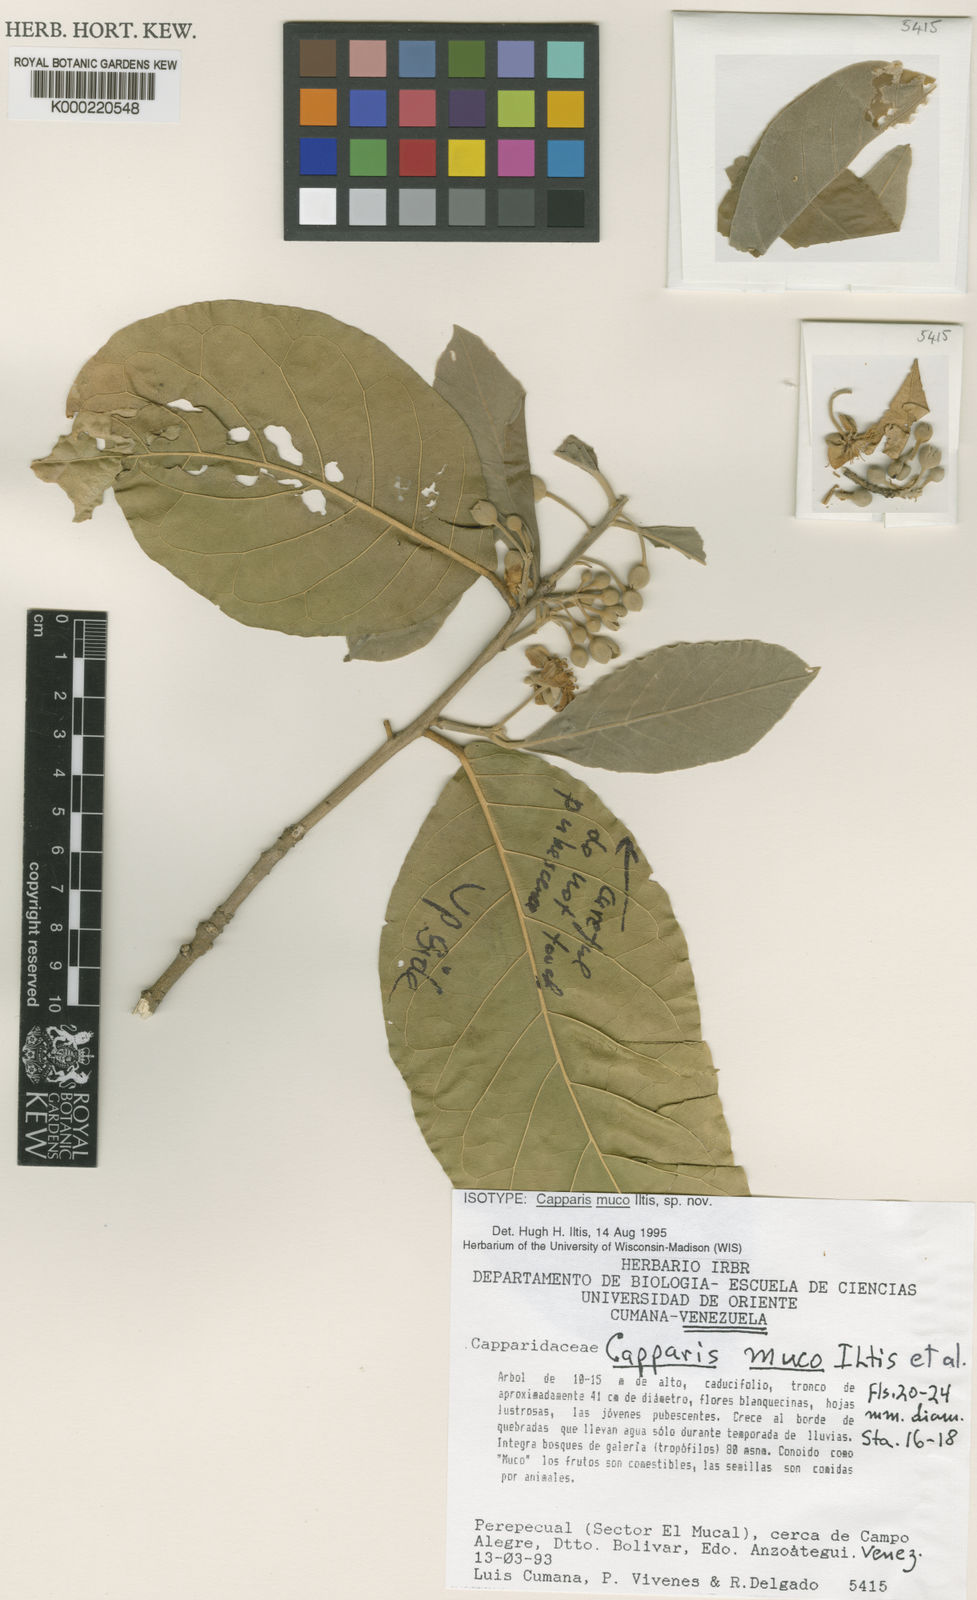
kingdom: Plantae
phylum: Tracheophyta
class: Magnoliopsida
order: Brassicales
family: Capparaceae
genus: Capparis
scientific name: Capparis
